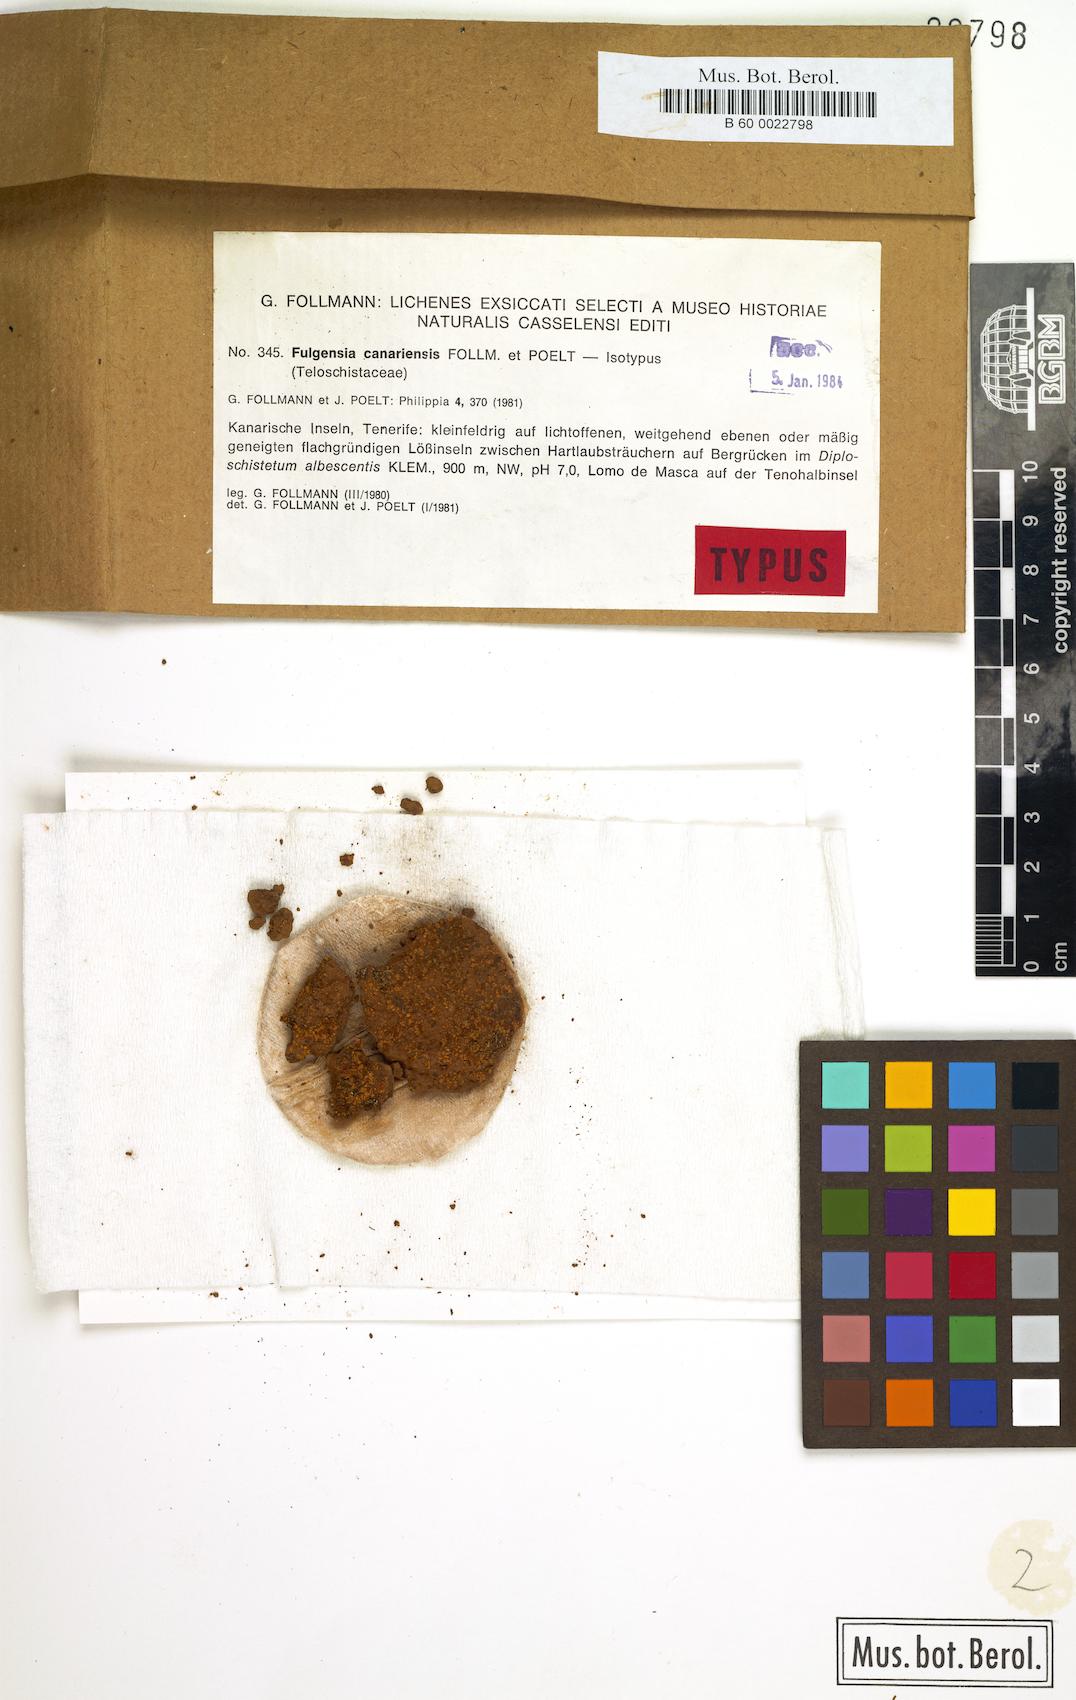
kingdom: Fungi
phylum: Ascomycota
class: Lecanoromycetes
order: Teloschistales
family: Teloschistaceae
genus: Gyalolechia
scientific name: Gyalolechia canariensis
